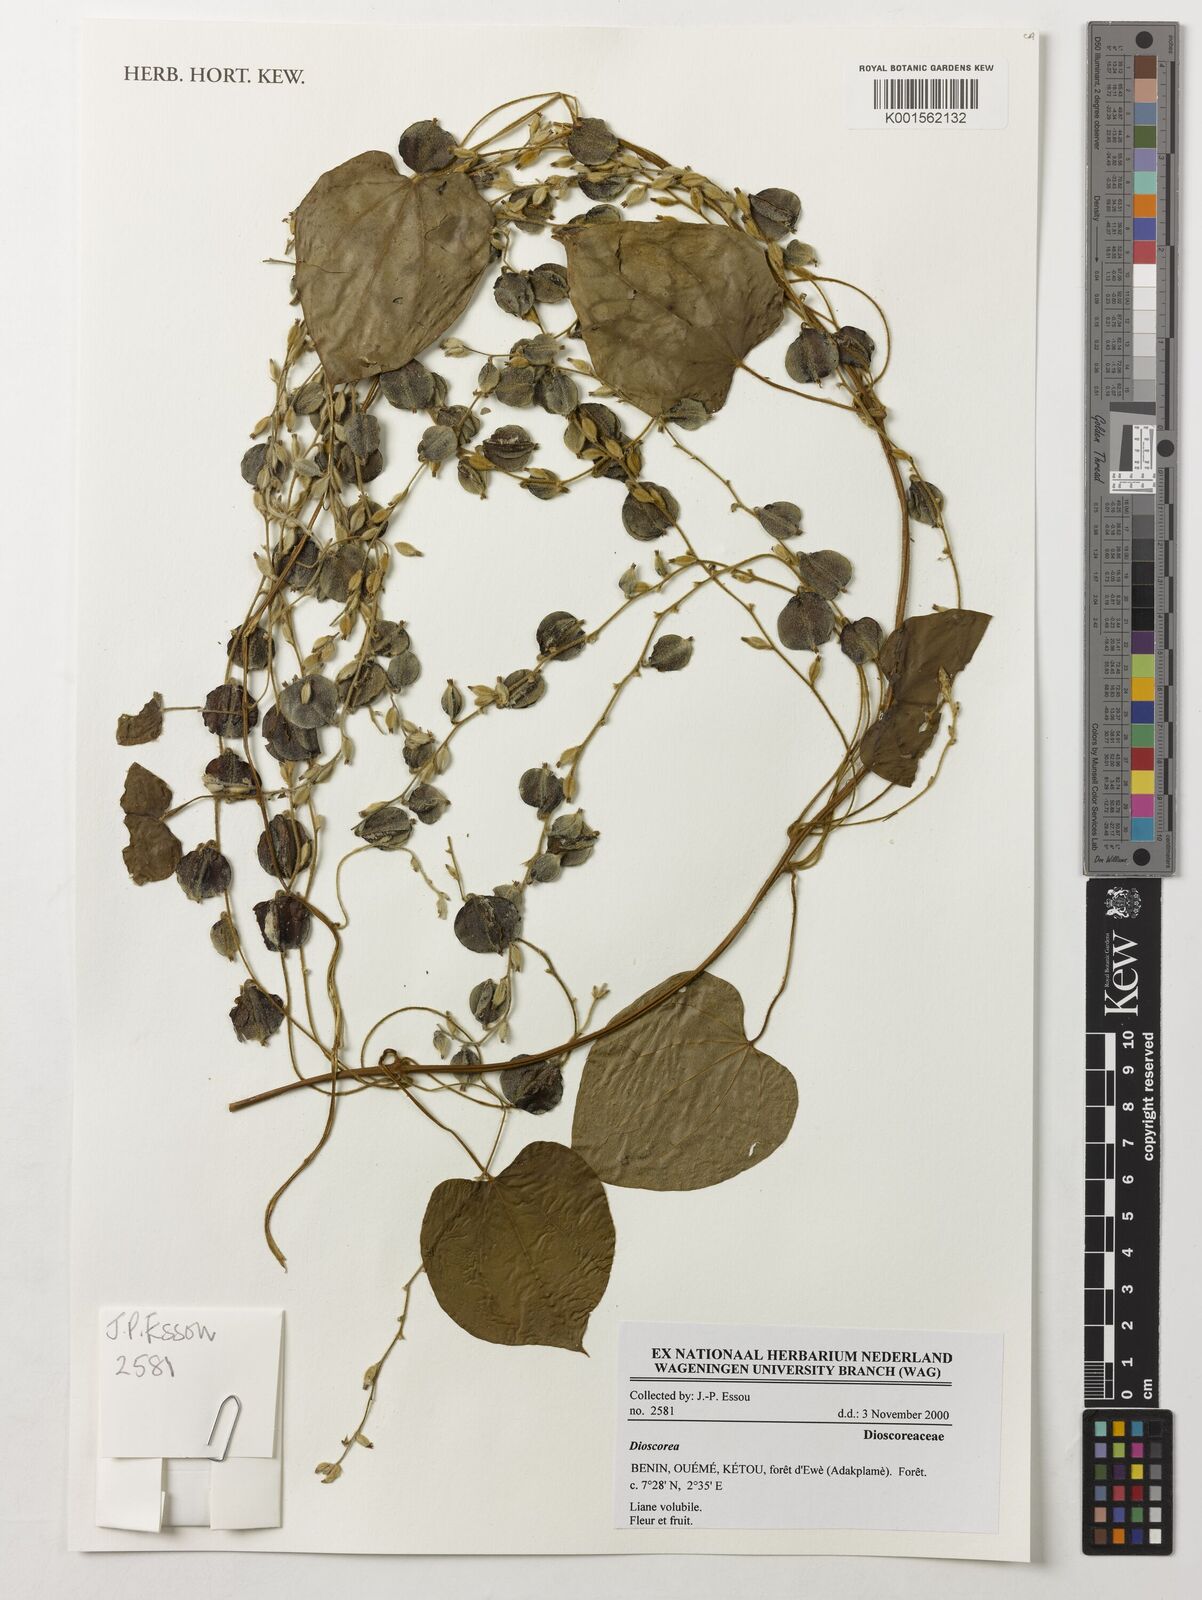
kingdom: Plantae
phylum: Tracheophyta
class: Liliopsida
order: Dioscoreales
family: Dioscoreaceae
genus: Dioscorea
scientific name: Dioscorea
